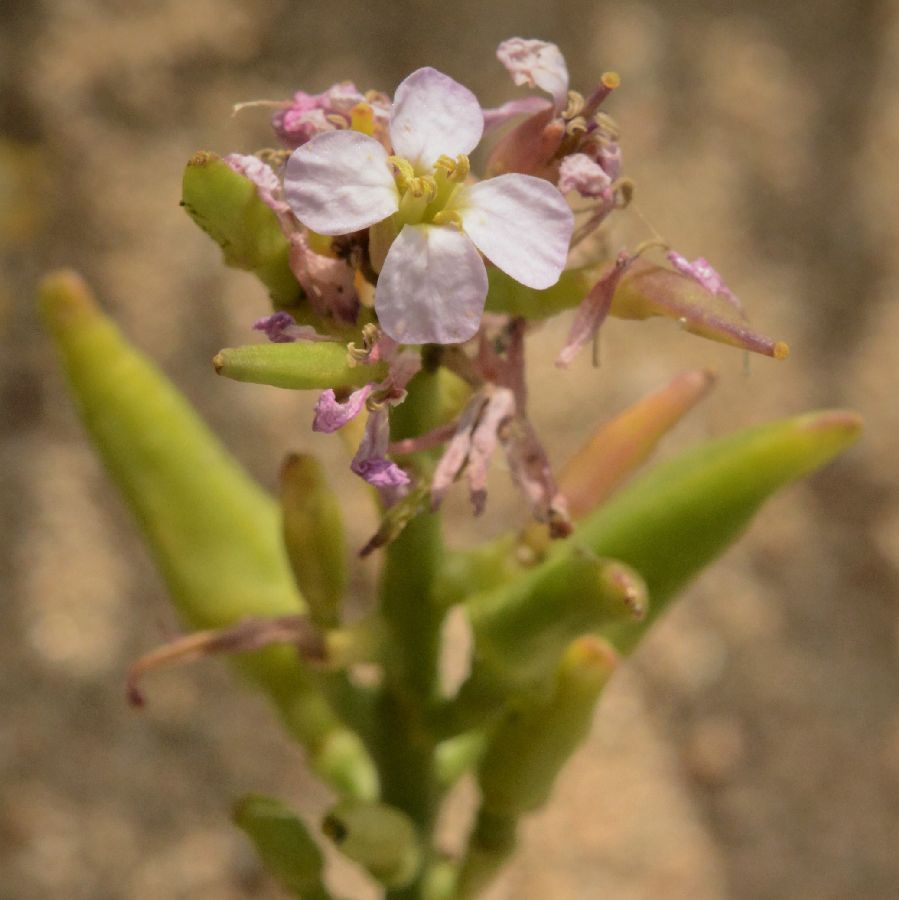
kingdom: Plantae
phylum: Tracheophyta
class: Magnoliopsida
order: Brassicales
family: Brassicaceae
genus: Cakile
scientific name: Cakile maritima
